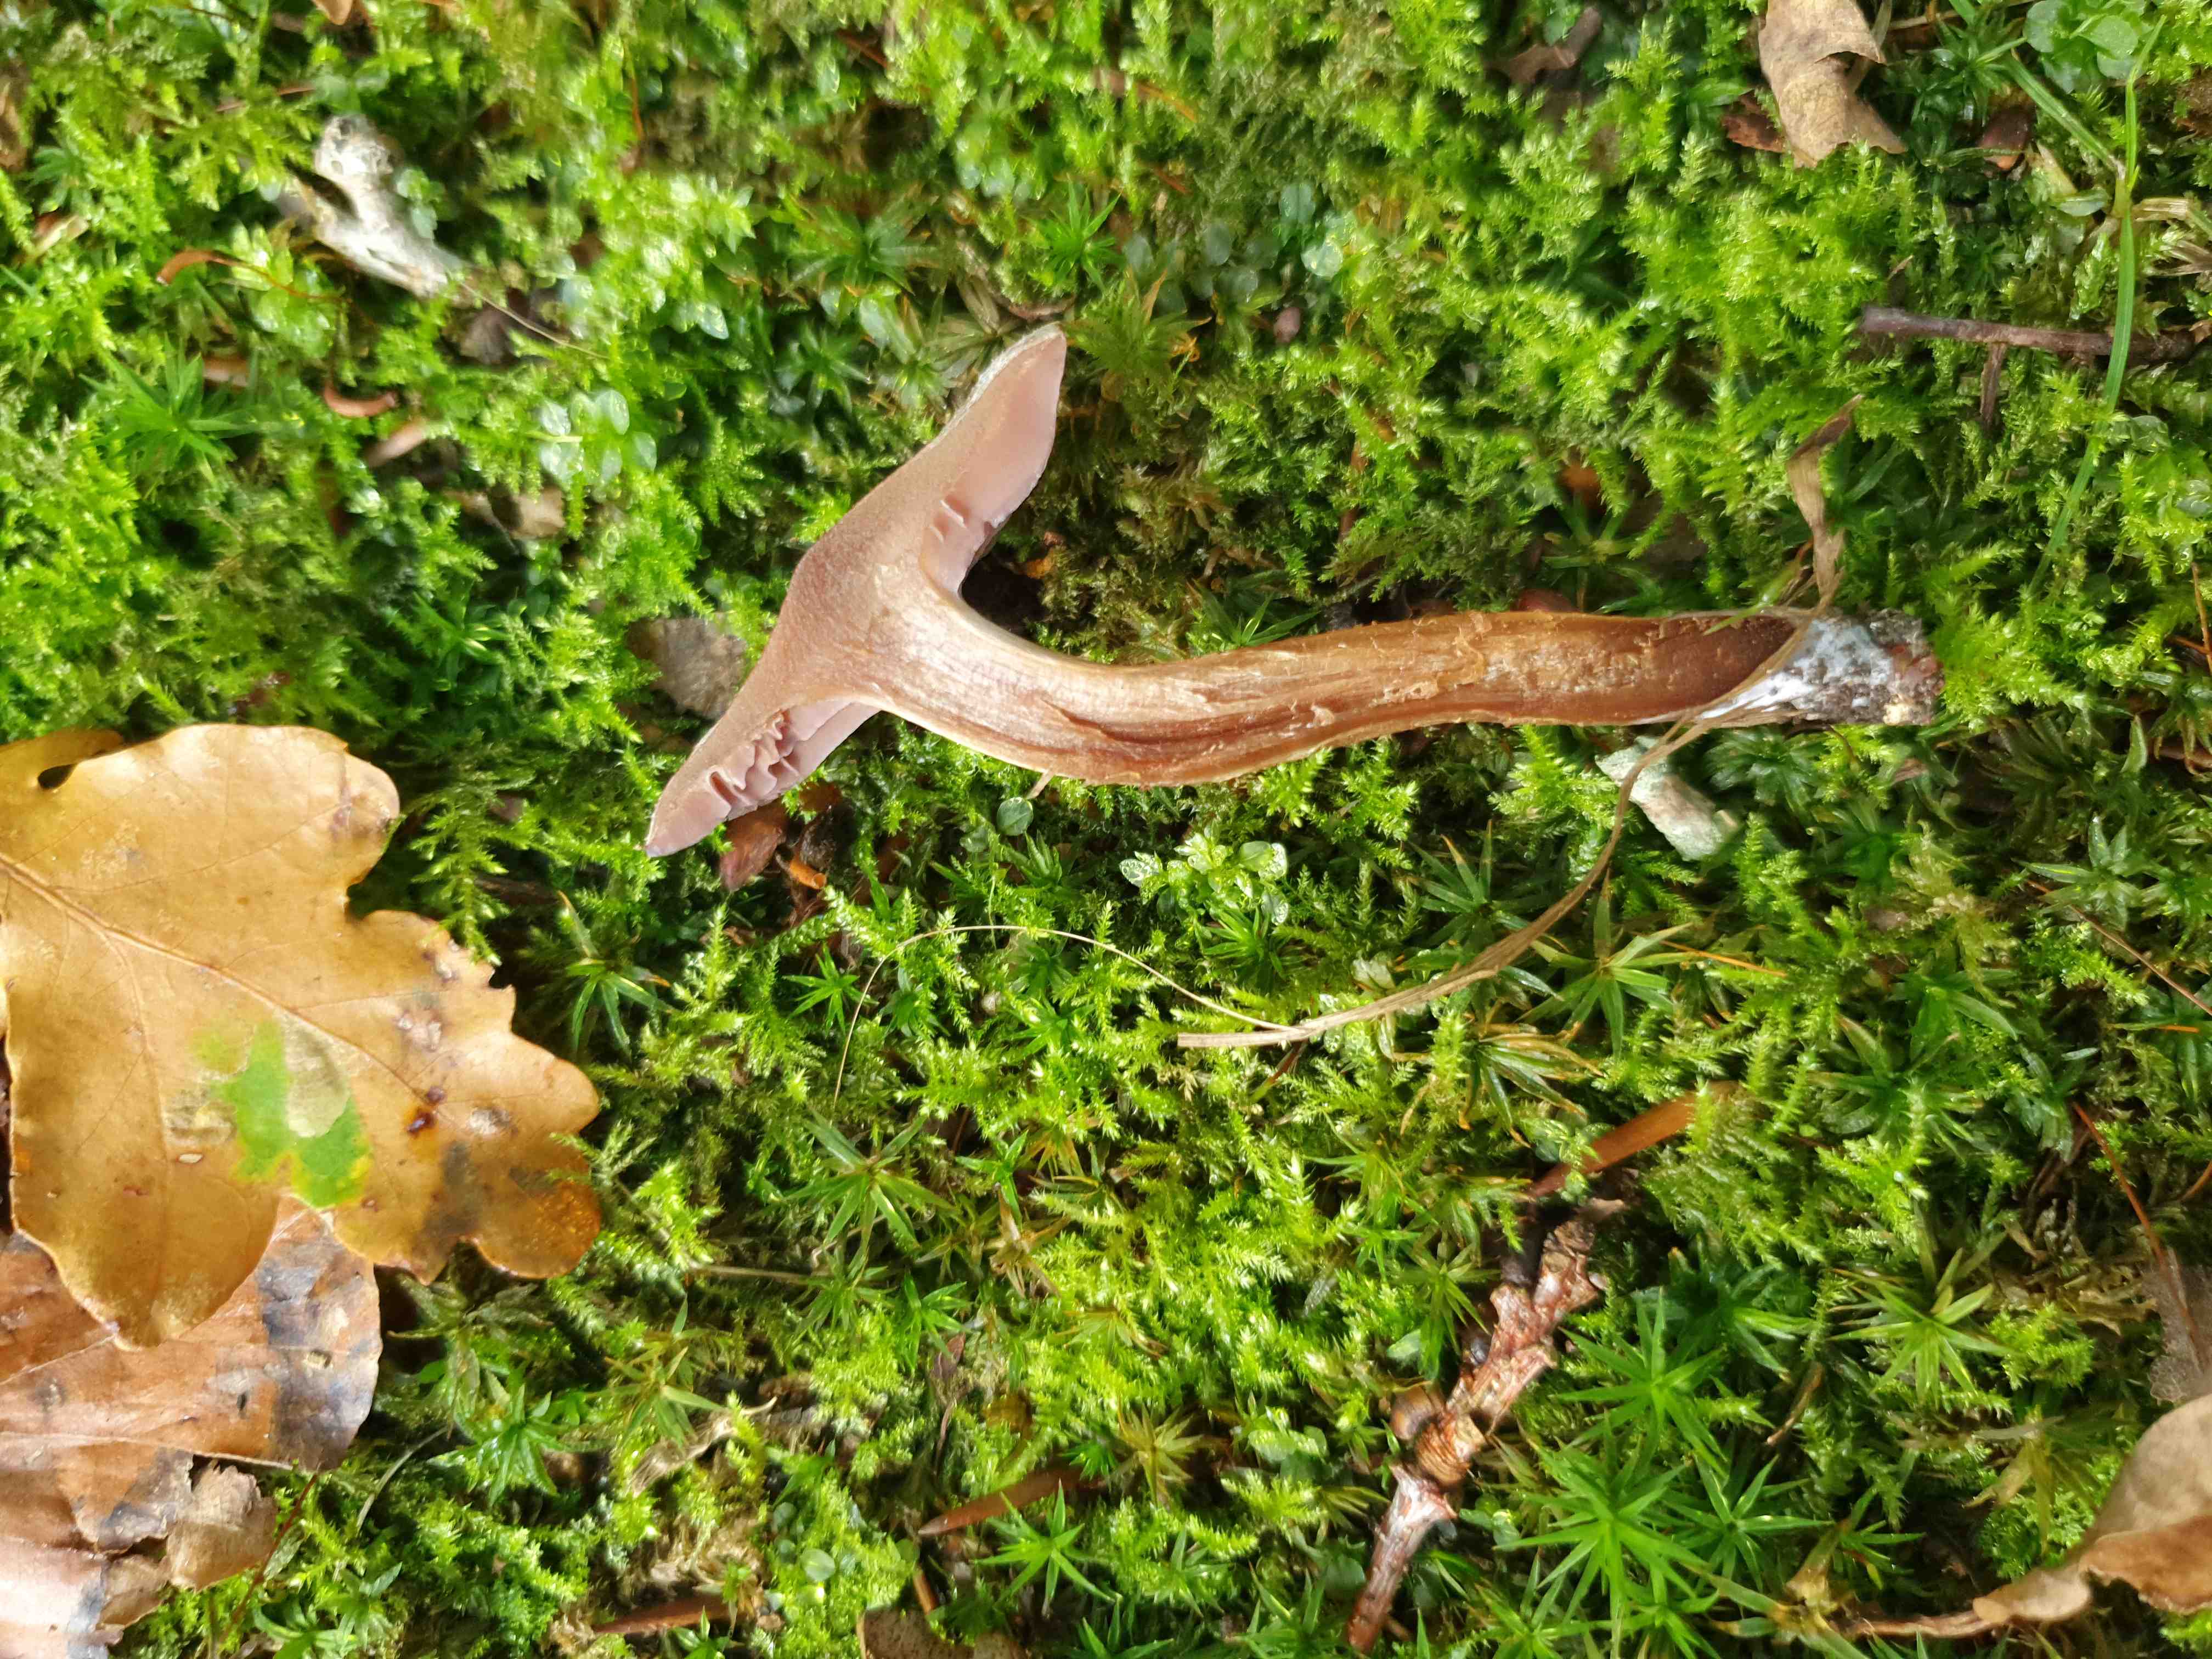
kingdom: Fungi
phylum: Basidiomycota
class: Agaricomycetes
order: Agaricales
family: Cortinariaceae
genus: Cortinarius
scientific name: Cortinarius geraniolens
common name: geranium-slørhat
